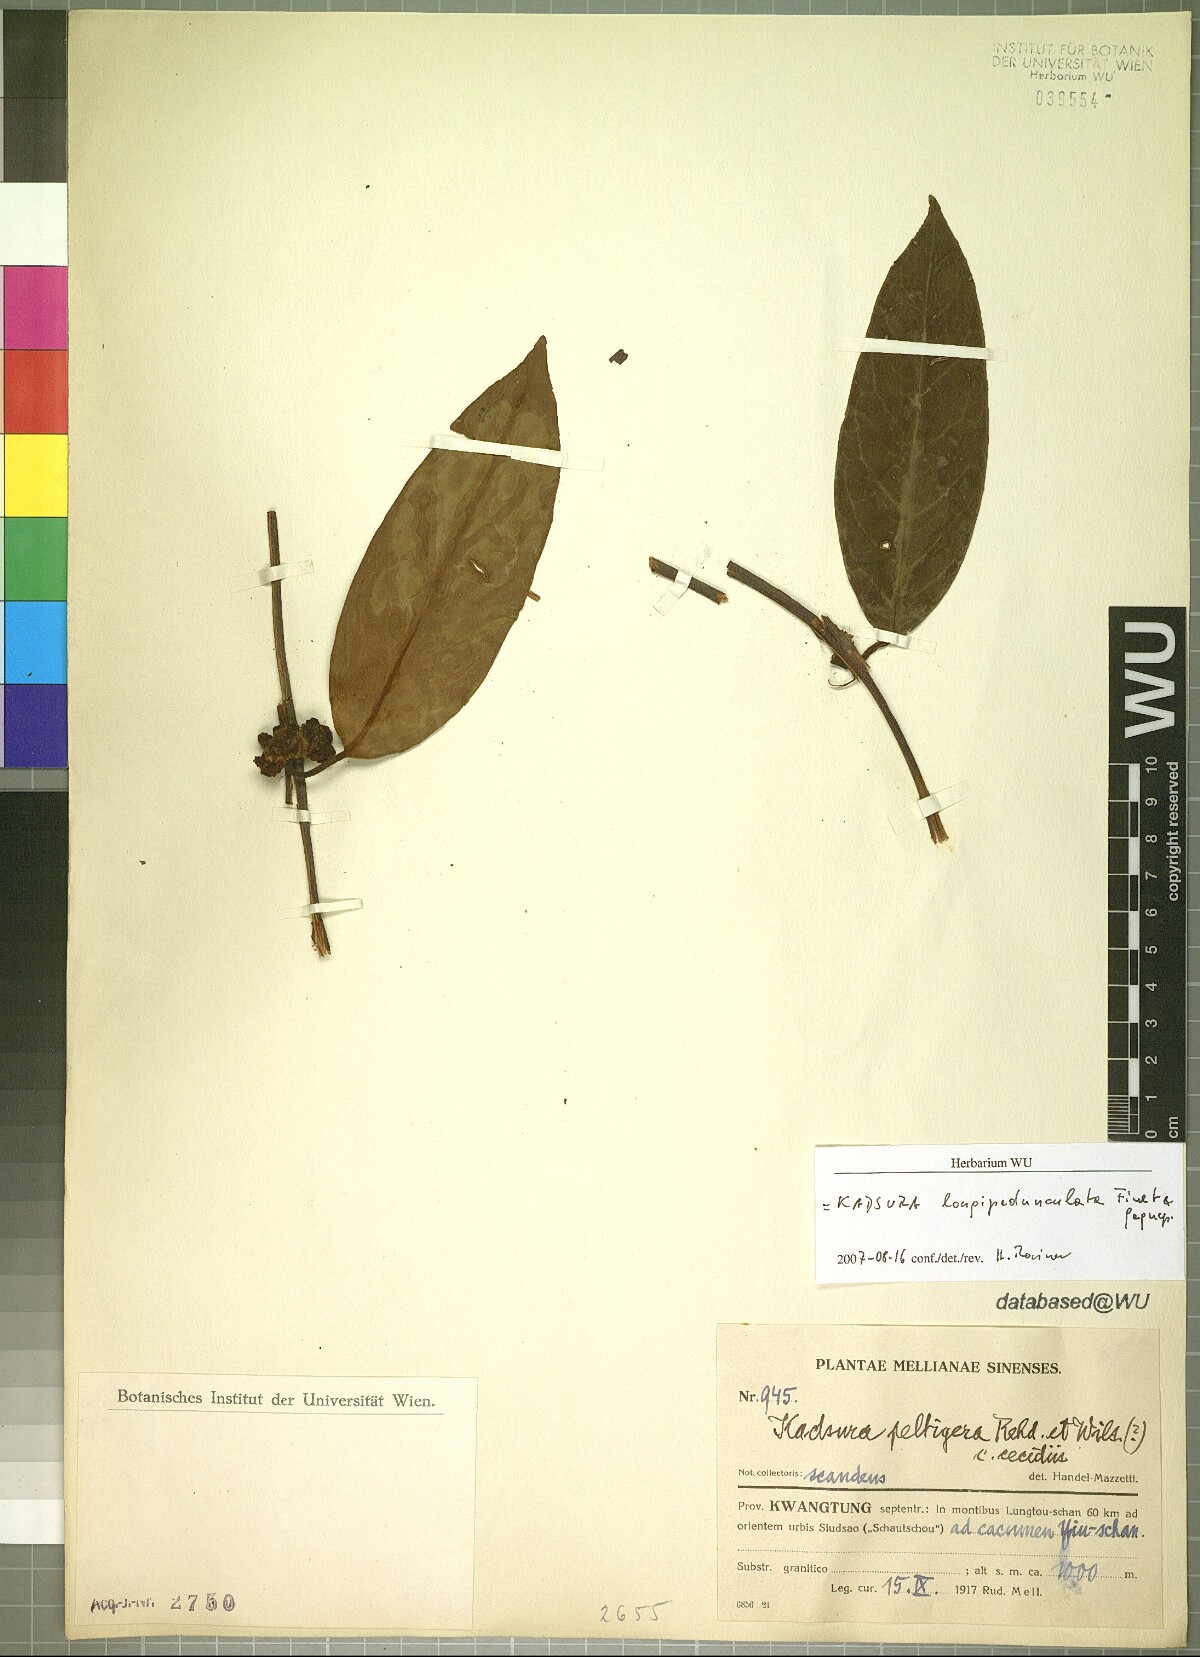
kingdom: Plantae
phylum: Tracheophyta
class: Magnoliopsida
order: Austrobaileyales
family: Schisandraceae
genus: Kadsura
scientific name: Kadsura longipedunculata
